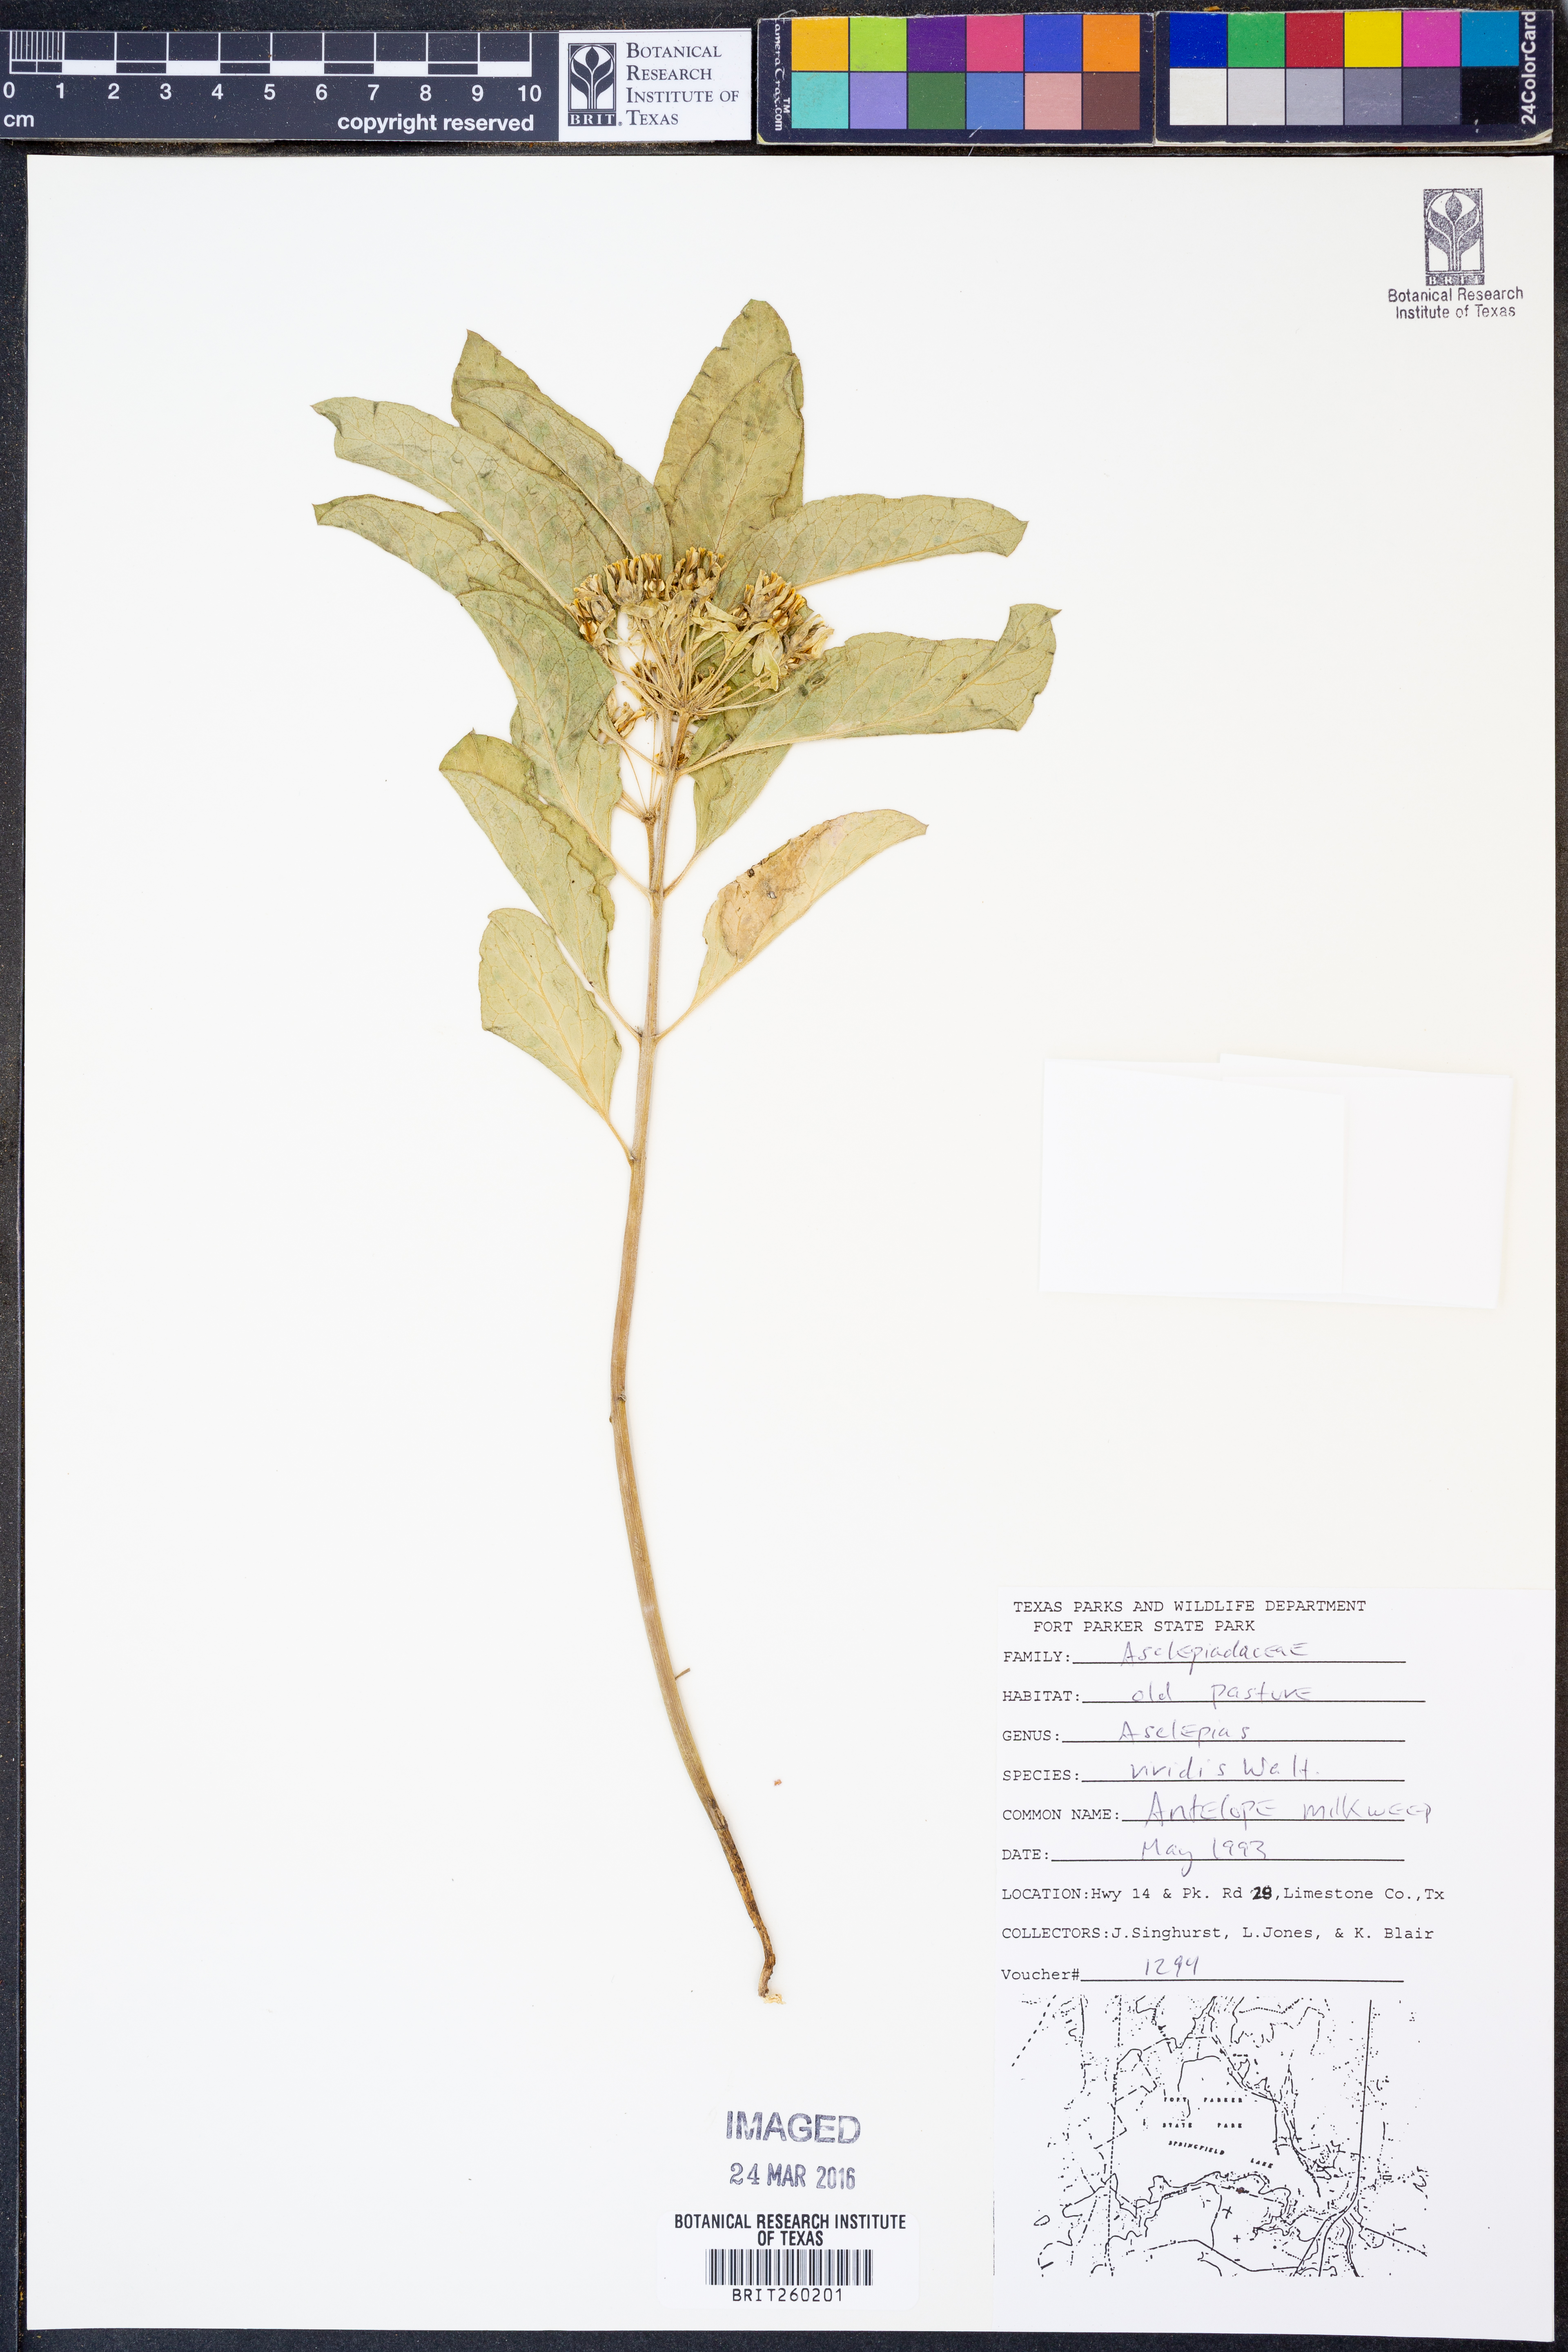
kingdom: Plantae
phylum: Tracheophyta
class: Magnoliopsida
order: Gentianales
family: Apocynaceae
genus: Asclepias
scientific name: Asclepias viridis
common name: Antelope-horns
